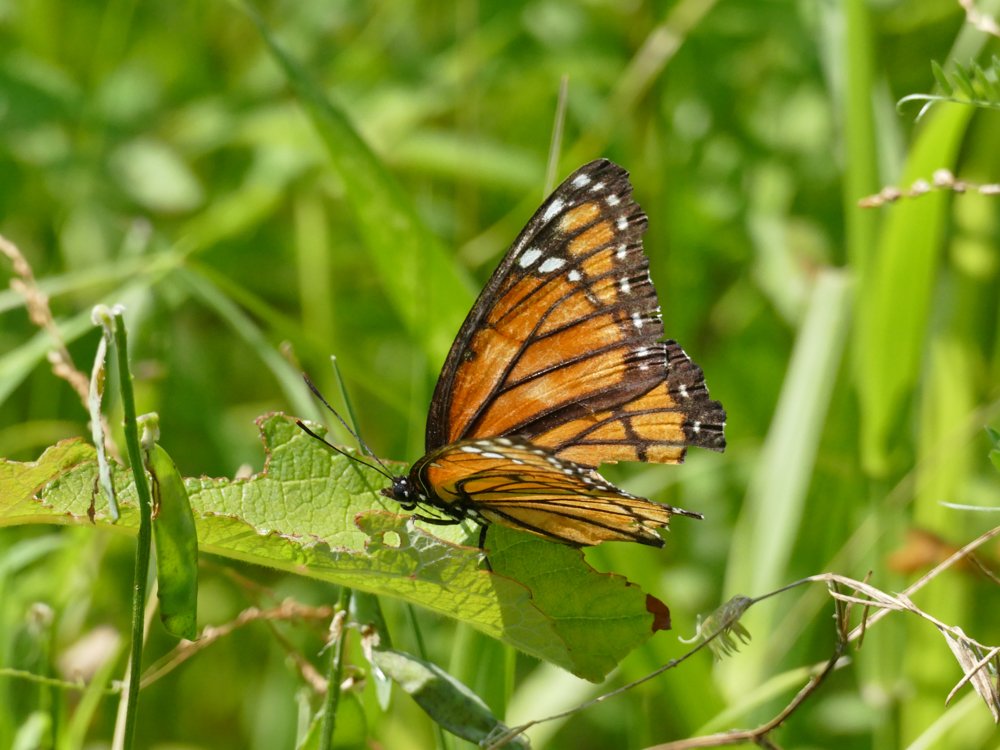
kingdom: Animalia
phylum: Arthropoda
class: Insecta
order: Lepidoptera
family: Nymphalidae
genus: Limenitis
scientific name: Limenitis archippus
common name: Viceroy
